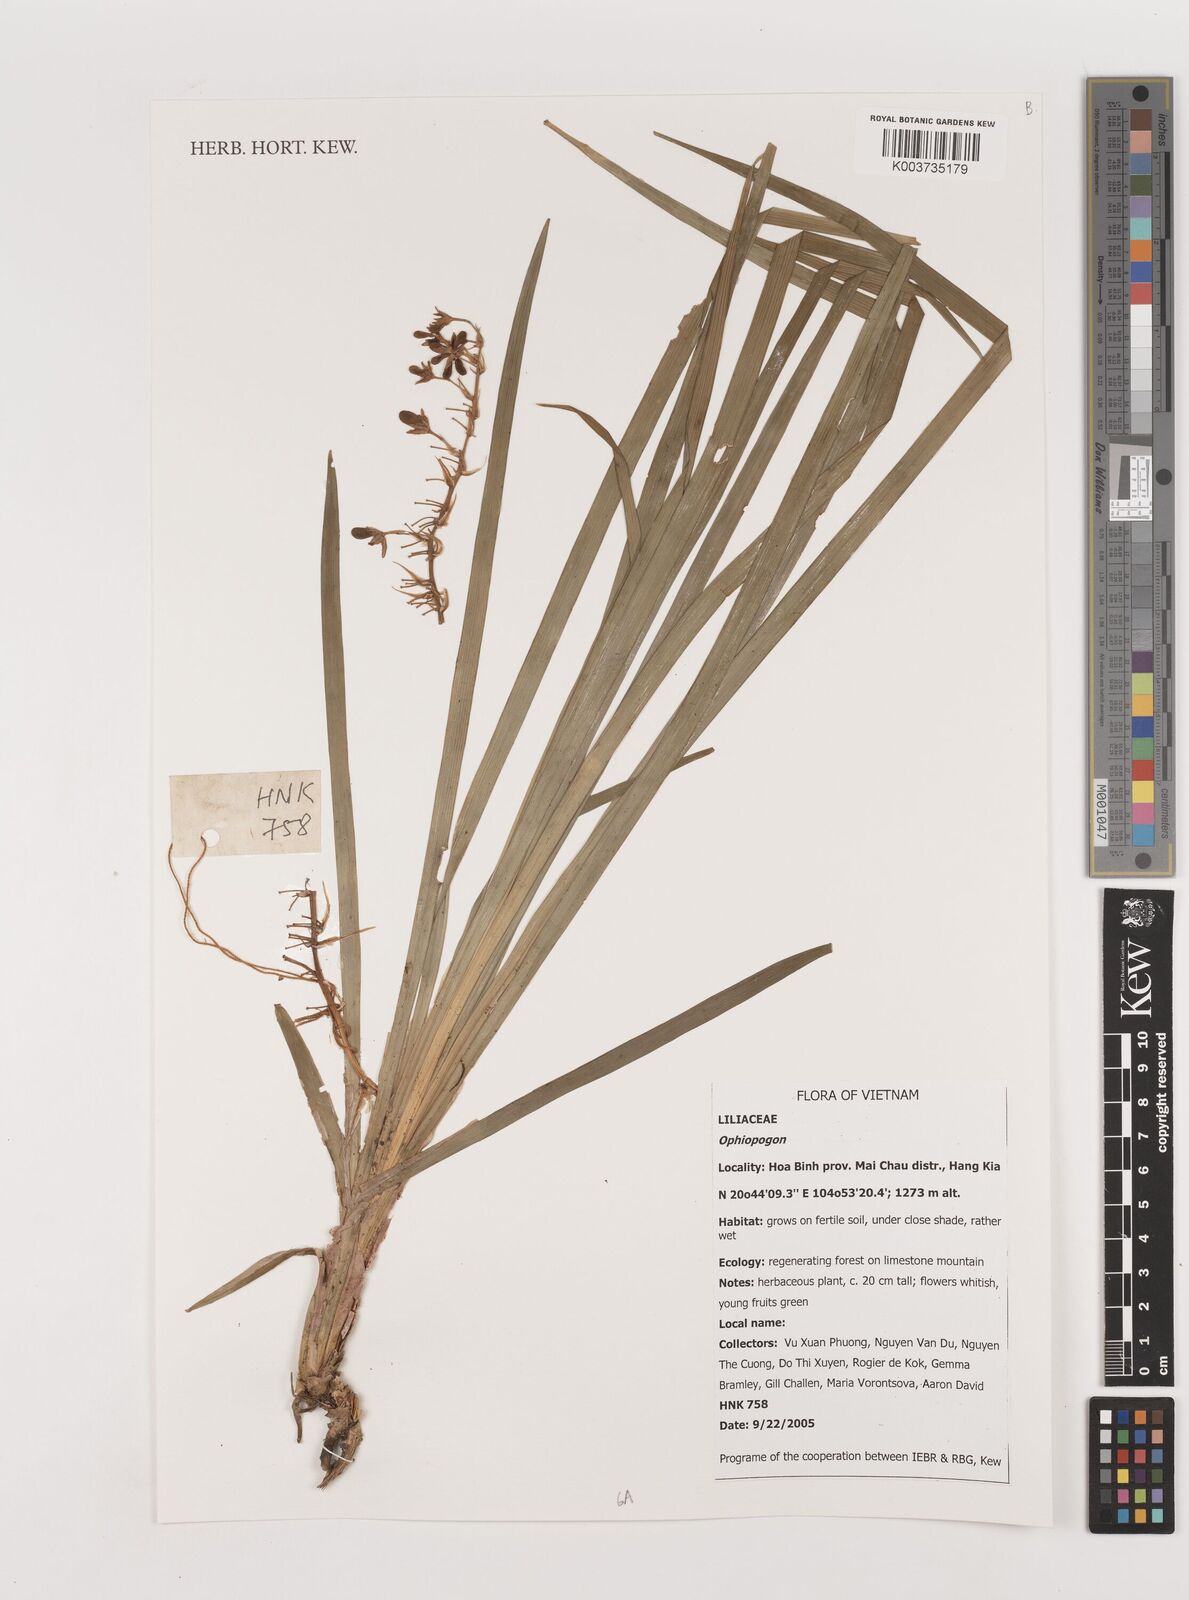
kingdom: Plantae
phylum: Tracheophyta
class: Liliopsida
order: Asparagales
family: Asparagaceae
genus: Ophiopogon
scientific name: Ophiopogon
